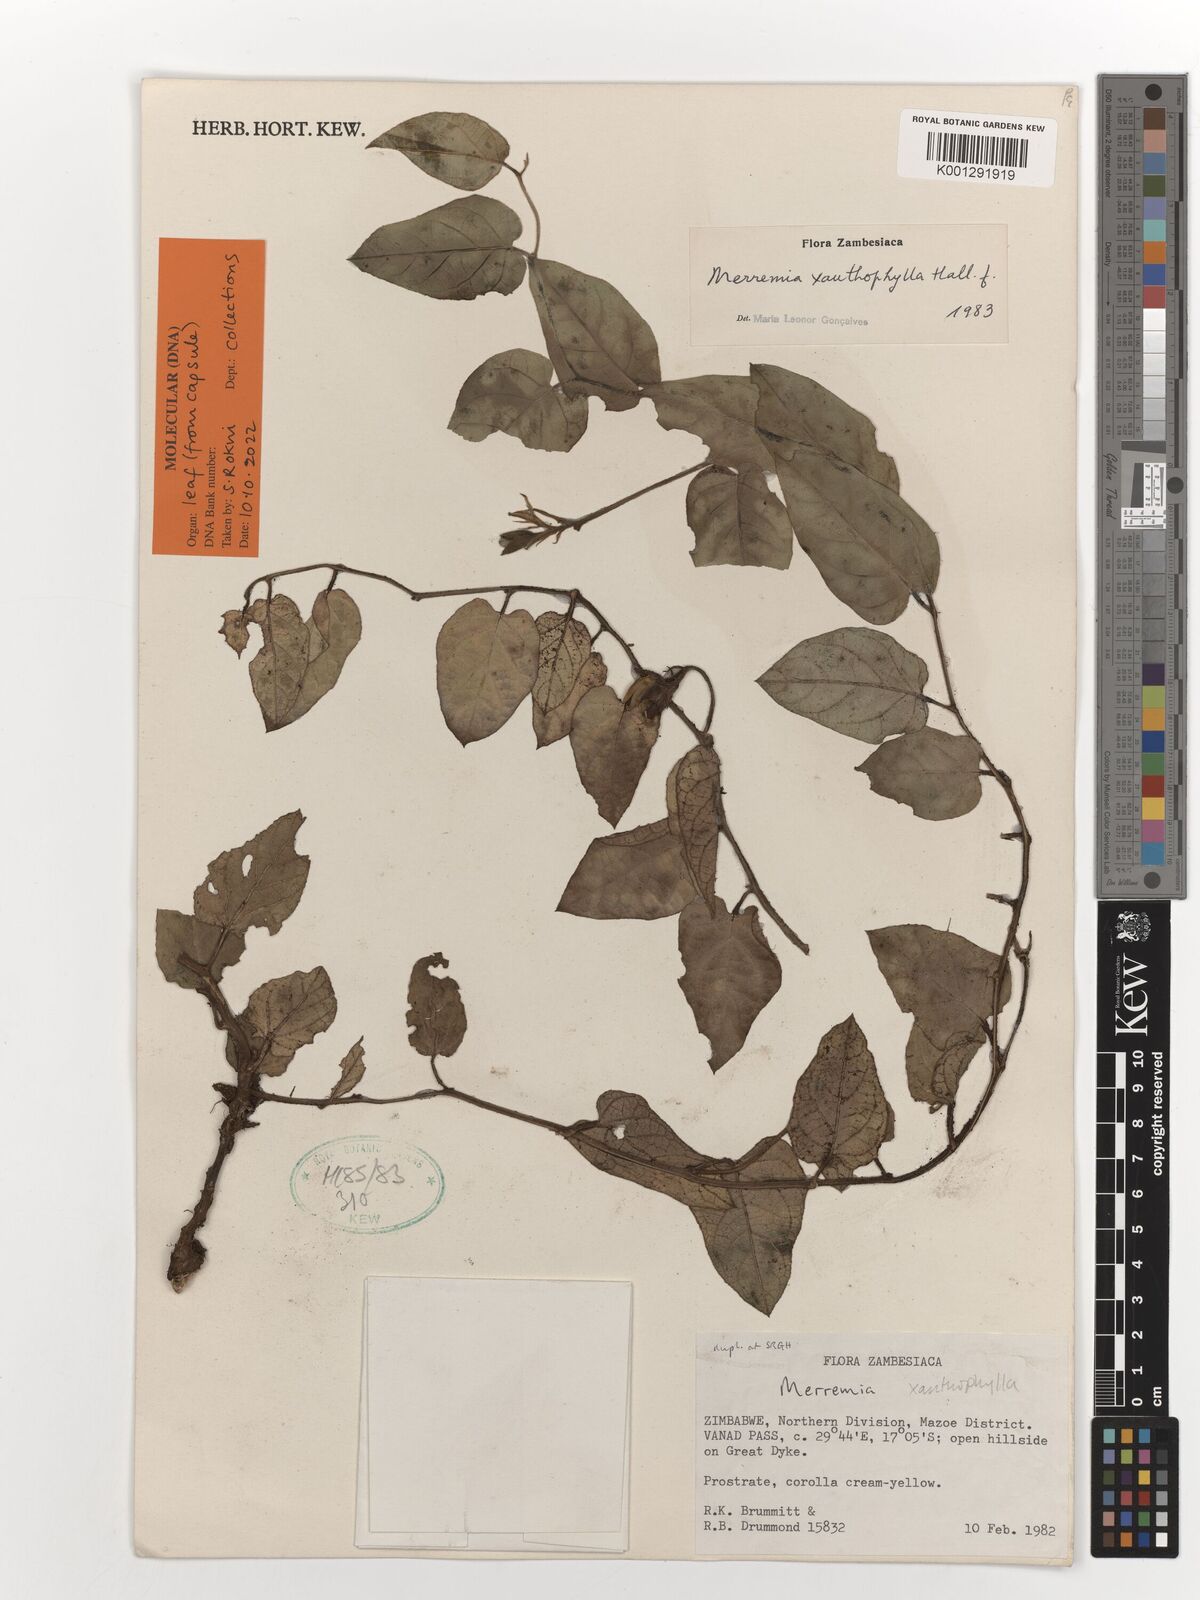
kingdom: Plantae
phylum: Tracheophyta
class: Magnoliopsida
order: Solanales
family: Convolvulaceae
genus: Merremia
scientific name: Merremia xanthophylla
